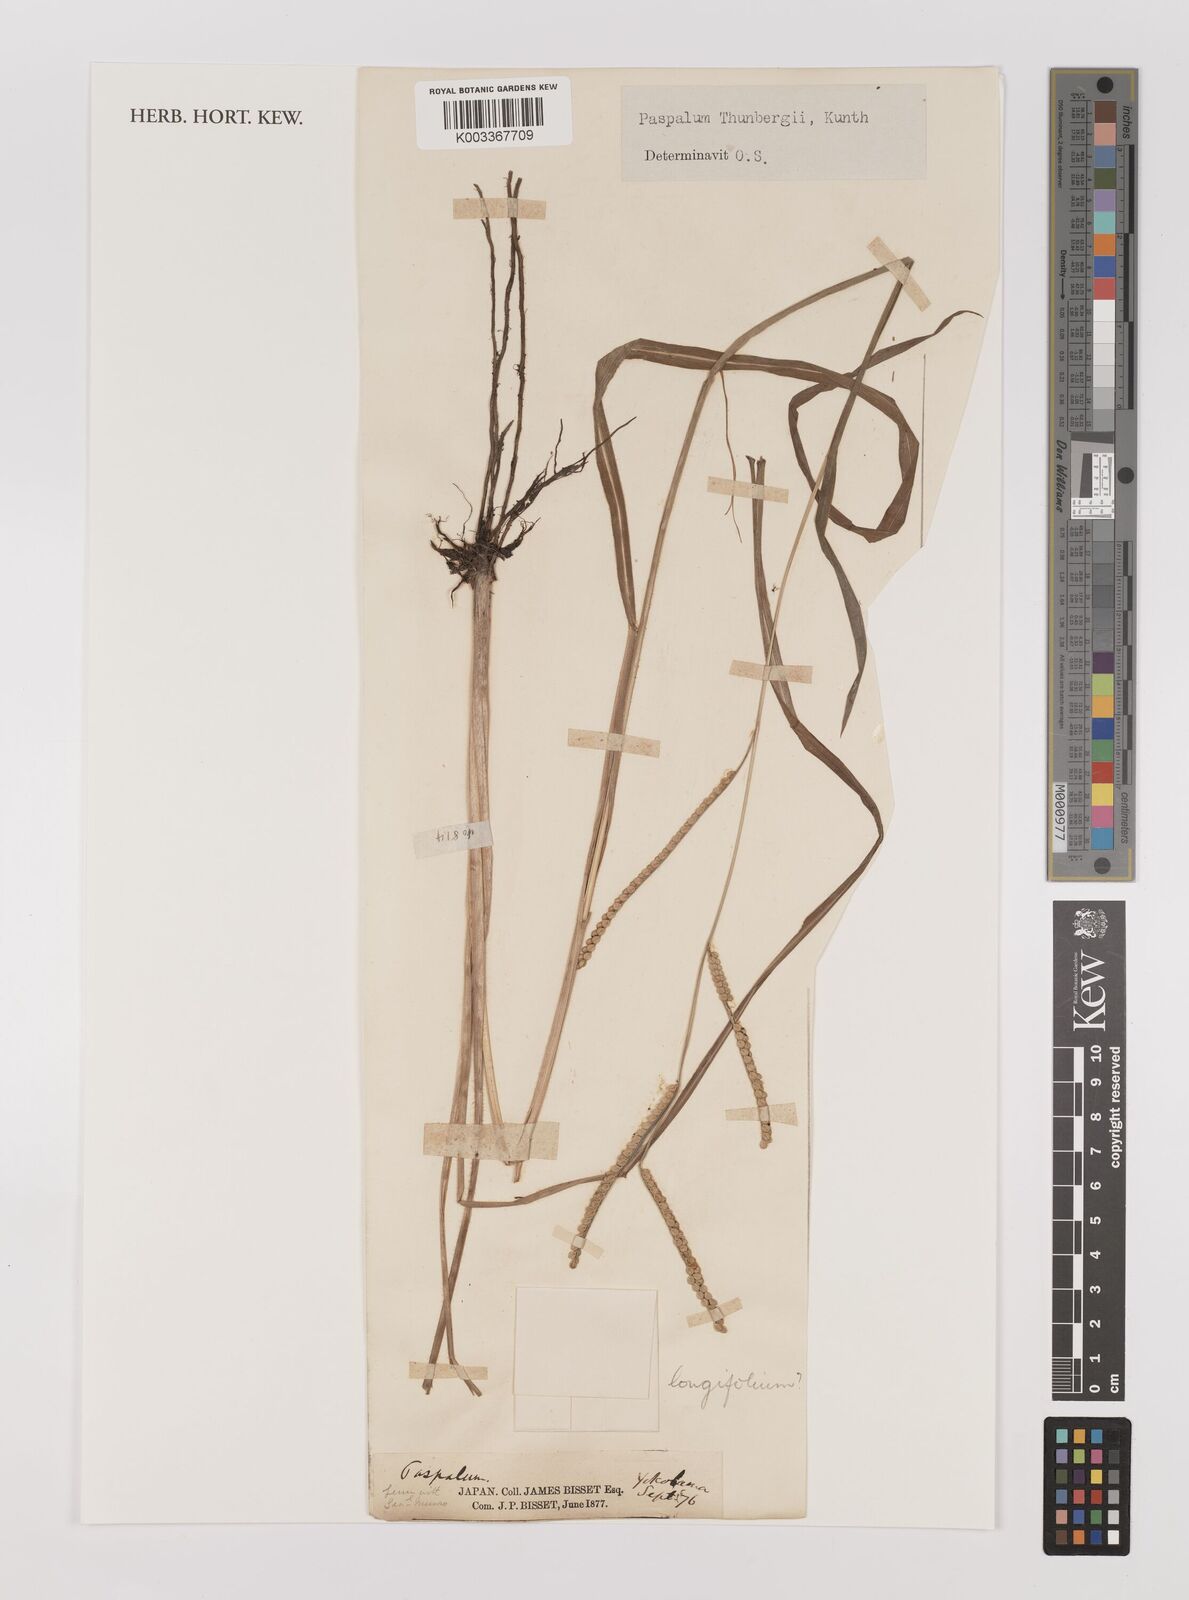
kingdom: Plantae
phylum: Tracheophyta
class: Liliopsida
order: Poales
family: Poaceae
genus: Panicum
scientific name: Panicum
